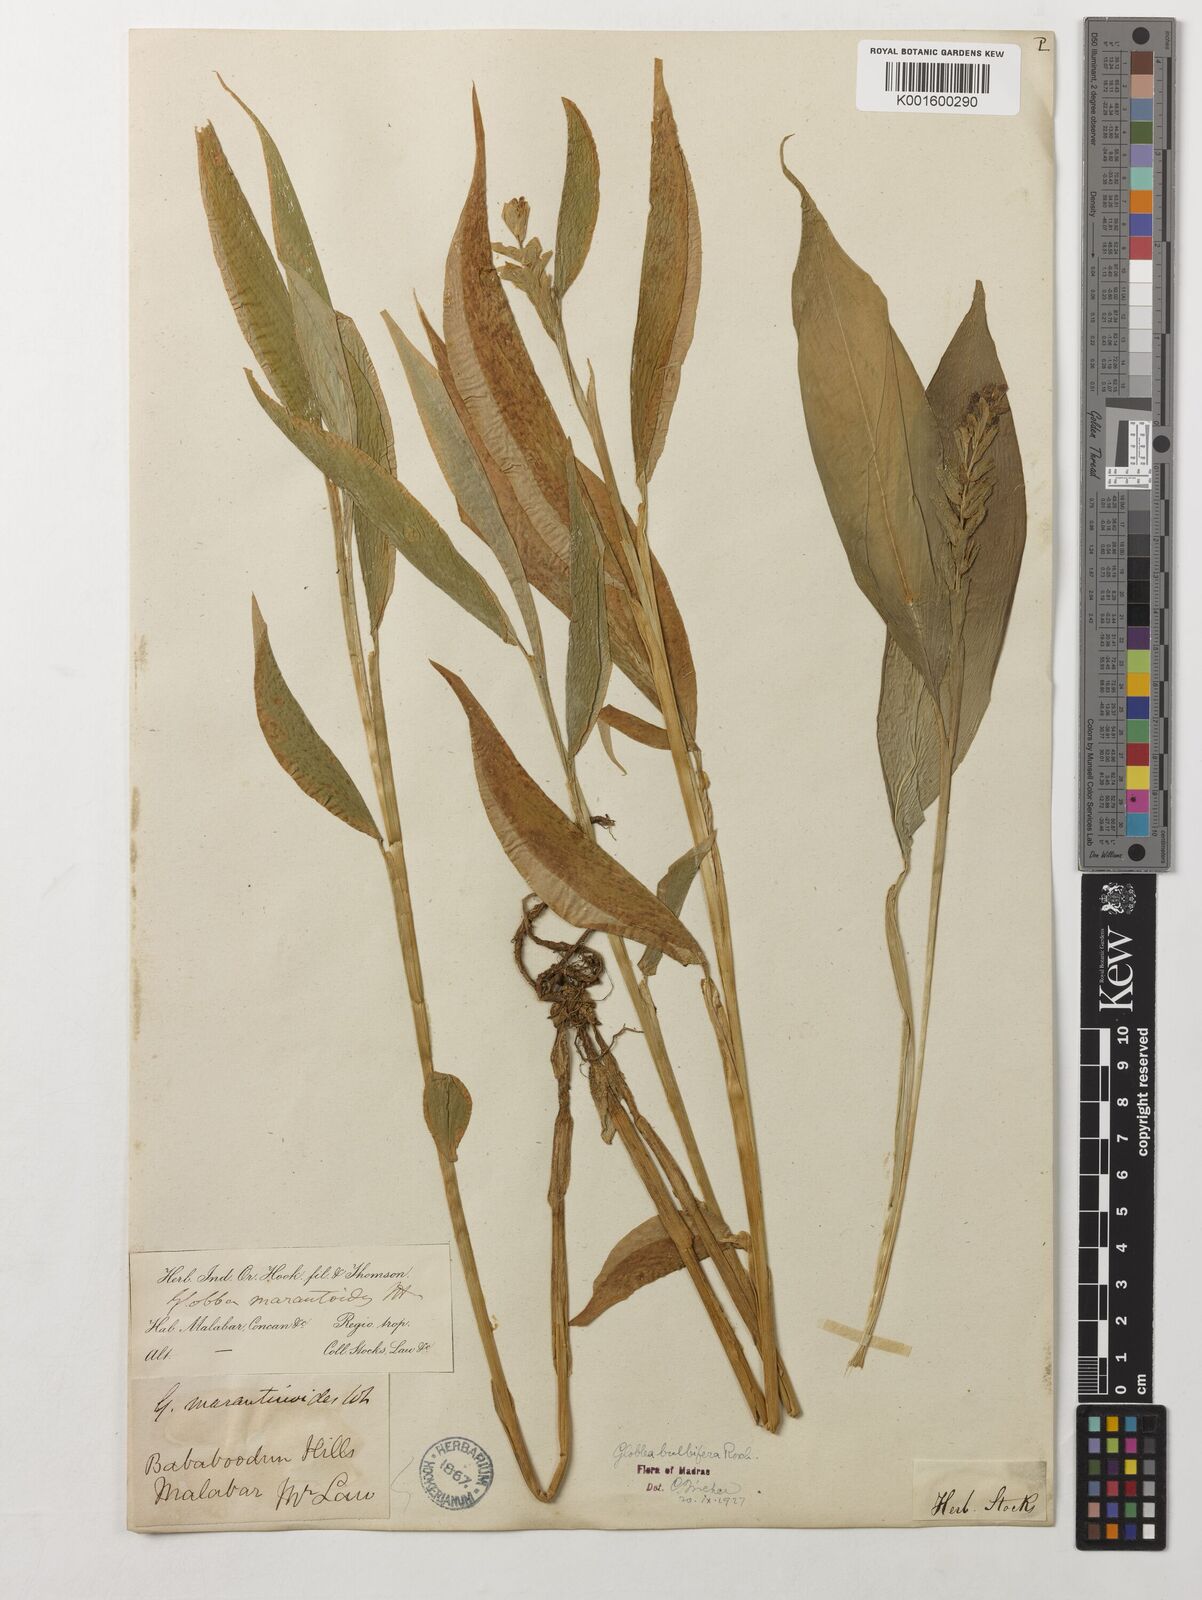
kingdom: Plantae
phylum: Tracheophyta
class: Liliopsida
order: Zingiberales
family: Zingiberaceae
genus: Globba
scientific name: Globba marantina
